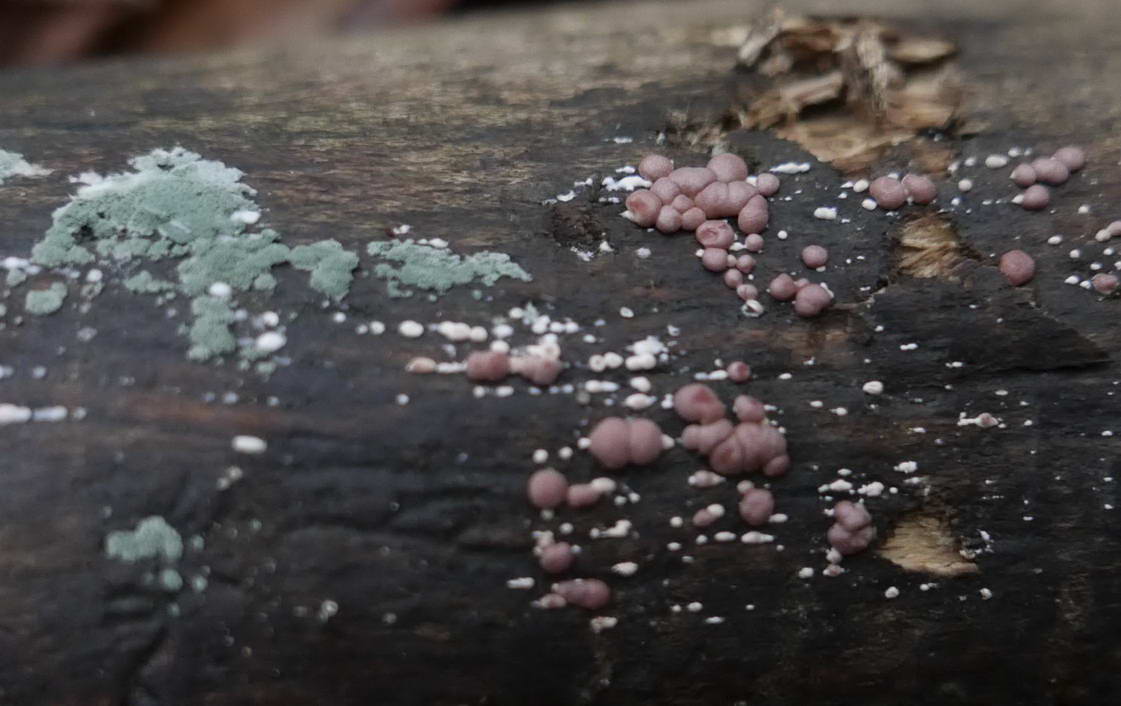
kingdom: Fungi
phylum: Ascomycota
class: Sordariomycetes
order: Hypocreales
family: Hypocreaceae
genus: Trichoderma
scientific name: Trichoderma europaeum
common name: rosabrun kødkerne
